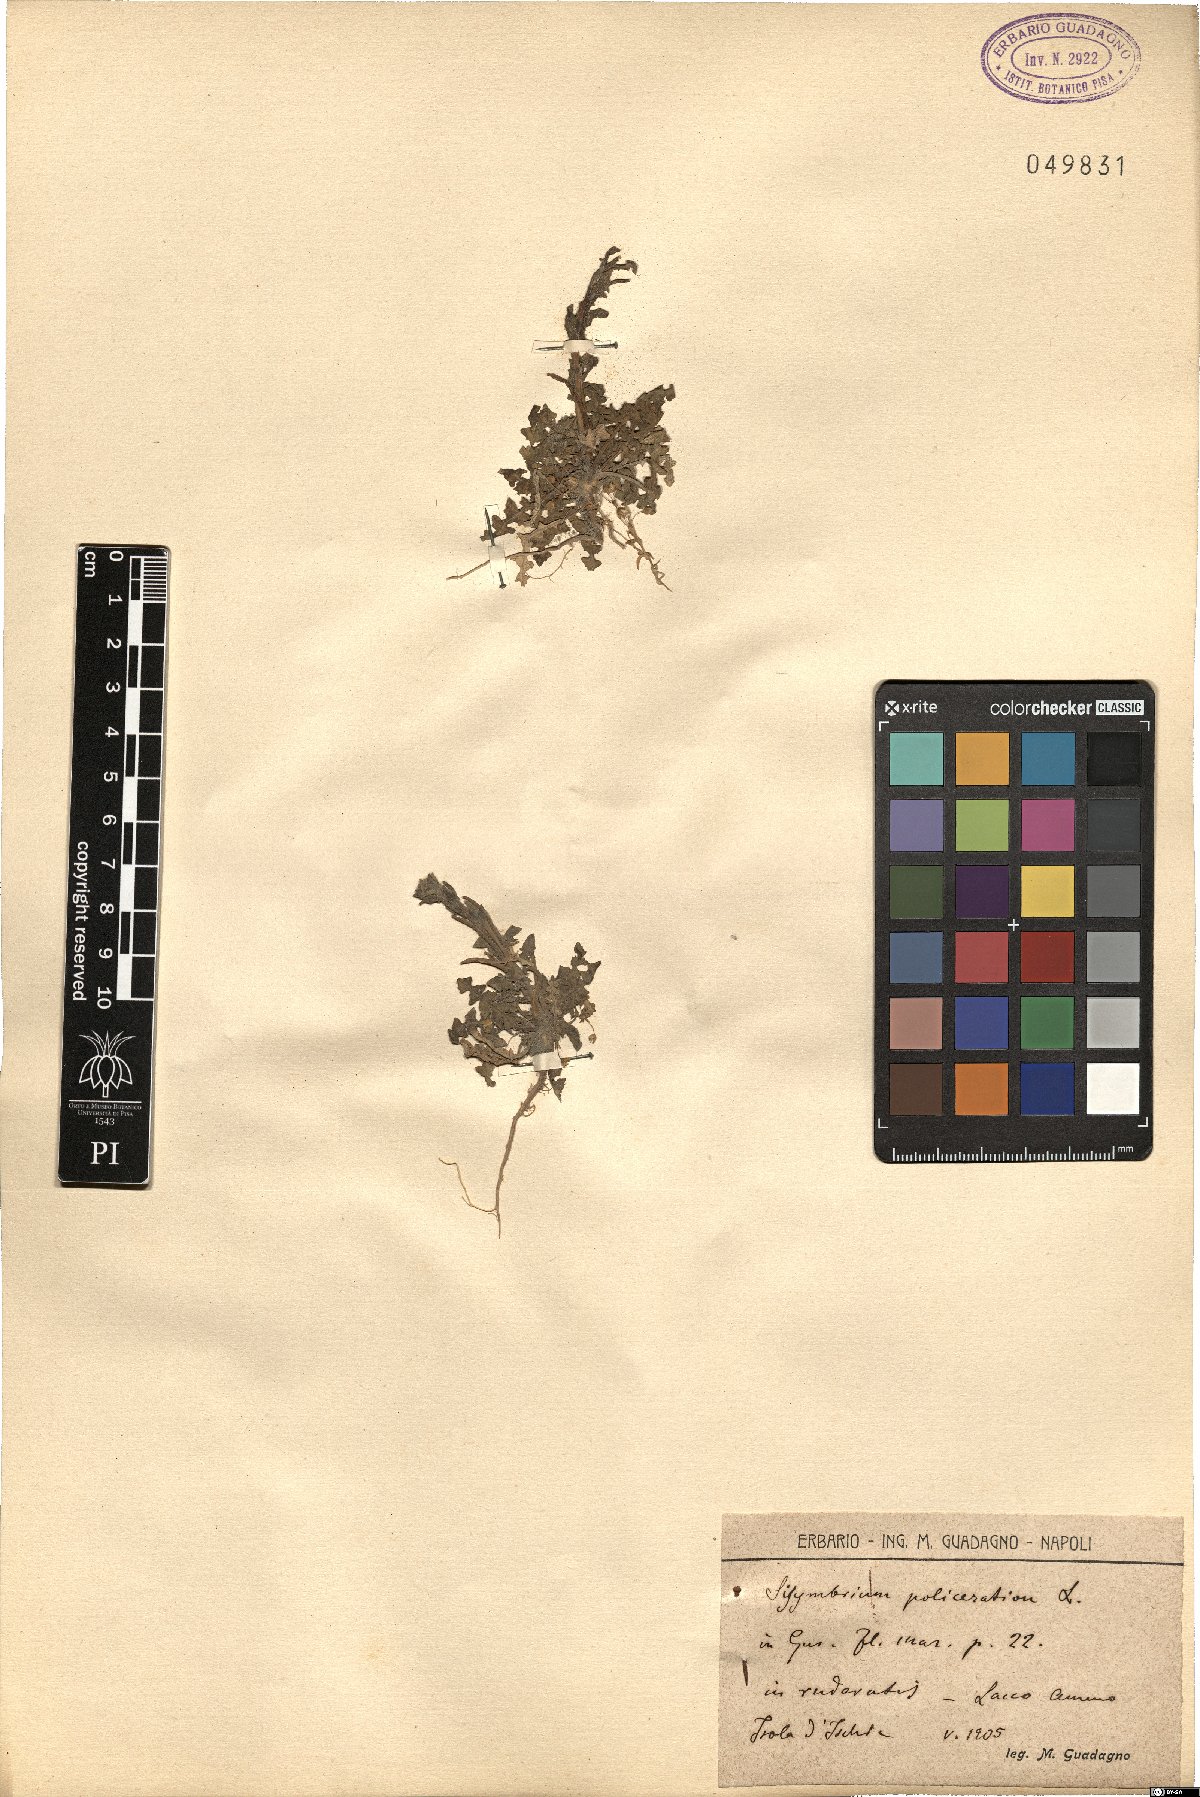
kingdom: Plantae
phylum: Tracheophyta
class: Magnoliopsida
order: Brassicales
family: Brassicaceae
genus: Sisymbrium
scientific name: Sisymbrium polyceratium
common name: Shortfruit hedgemustard
